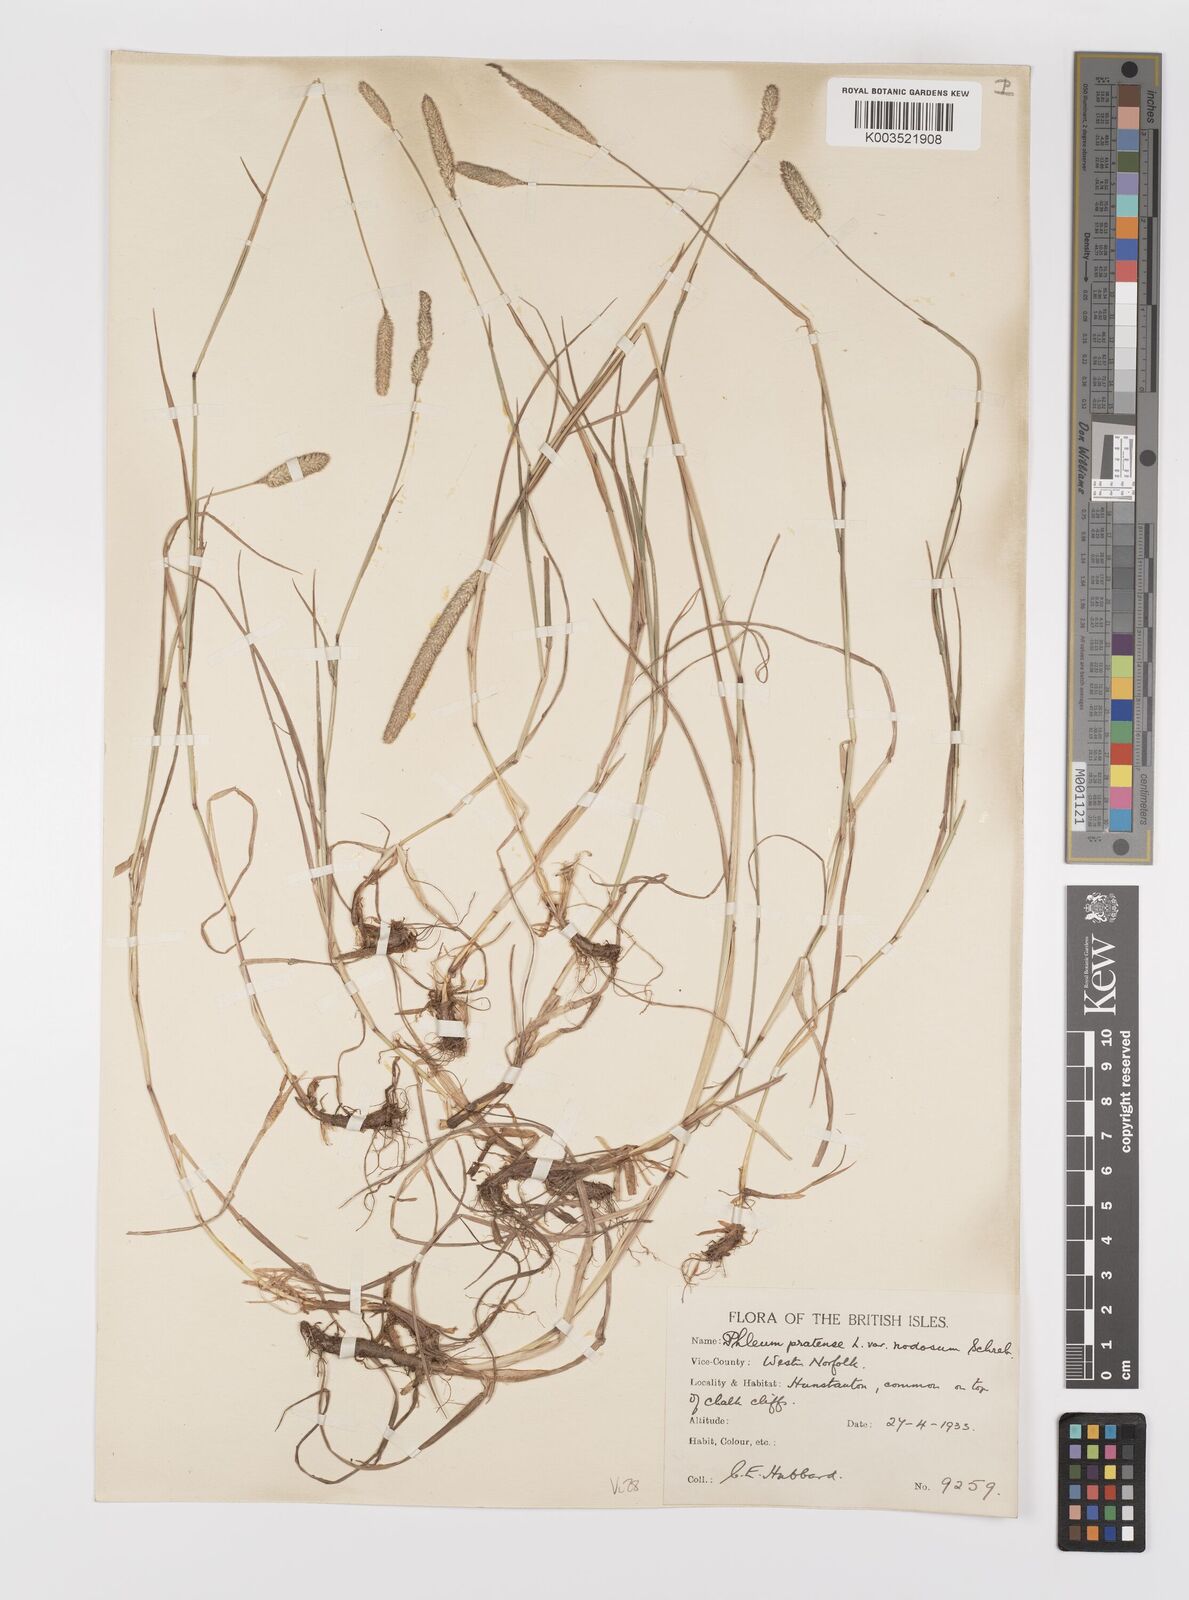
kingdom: Plantae
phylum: Tracheophyta
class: Liliopsida
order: Poales
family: Poaceae
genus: Phleum
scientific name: Phleum bertolonii
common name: Smaller cat's-tail
